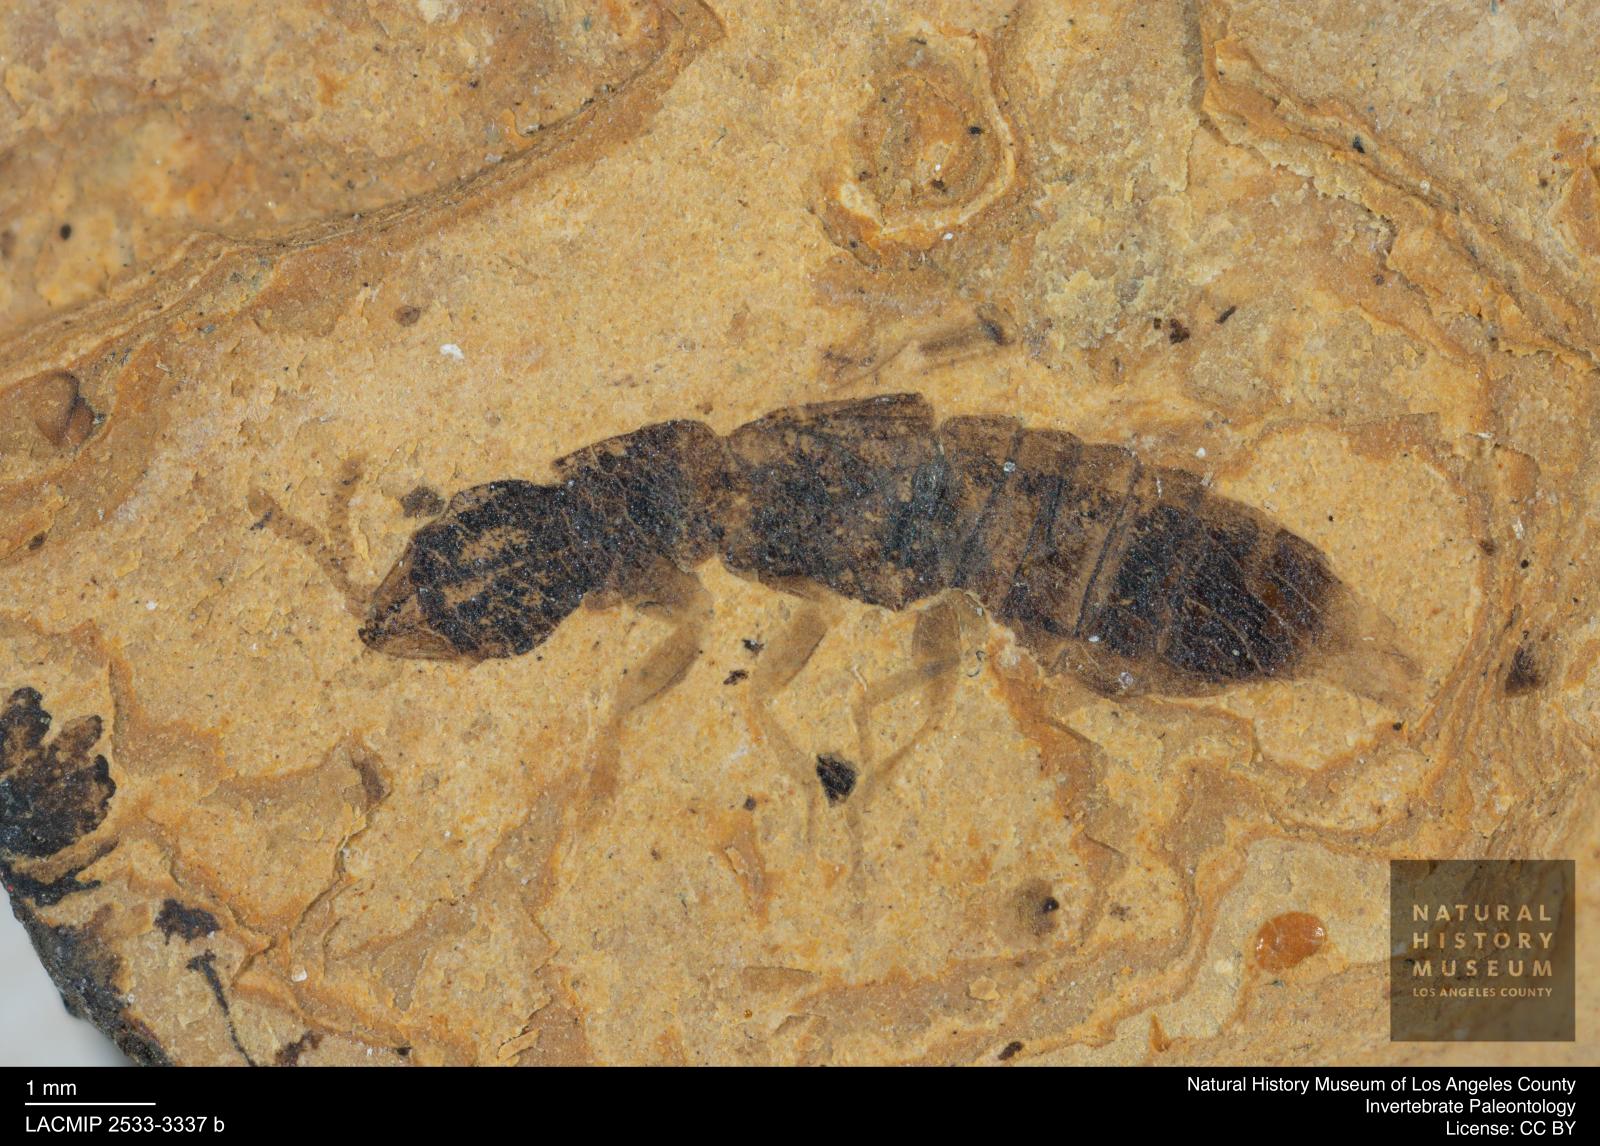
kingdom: Animalia
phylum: Arthropoda
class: Insecta
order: Coleoptera
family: Staphylinidae
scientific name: Staphylinidae
